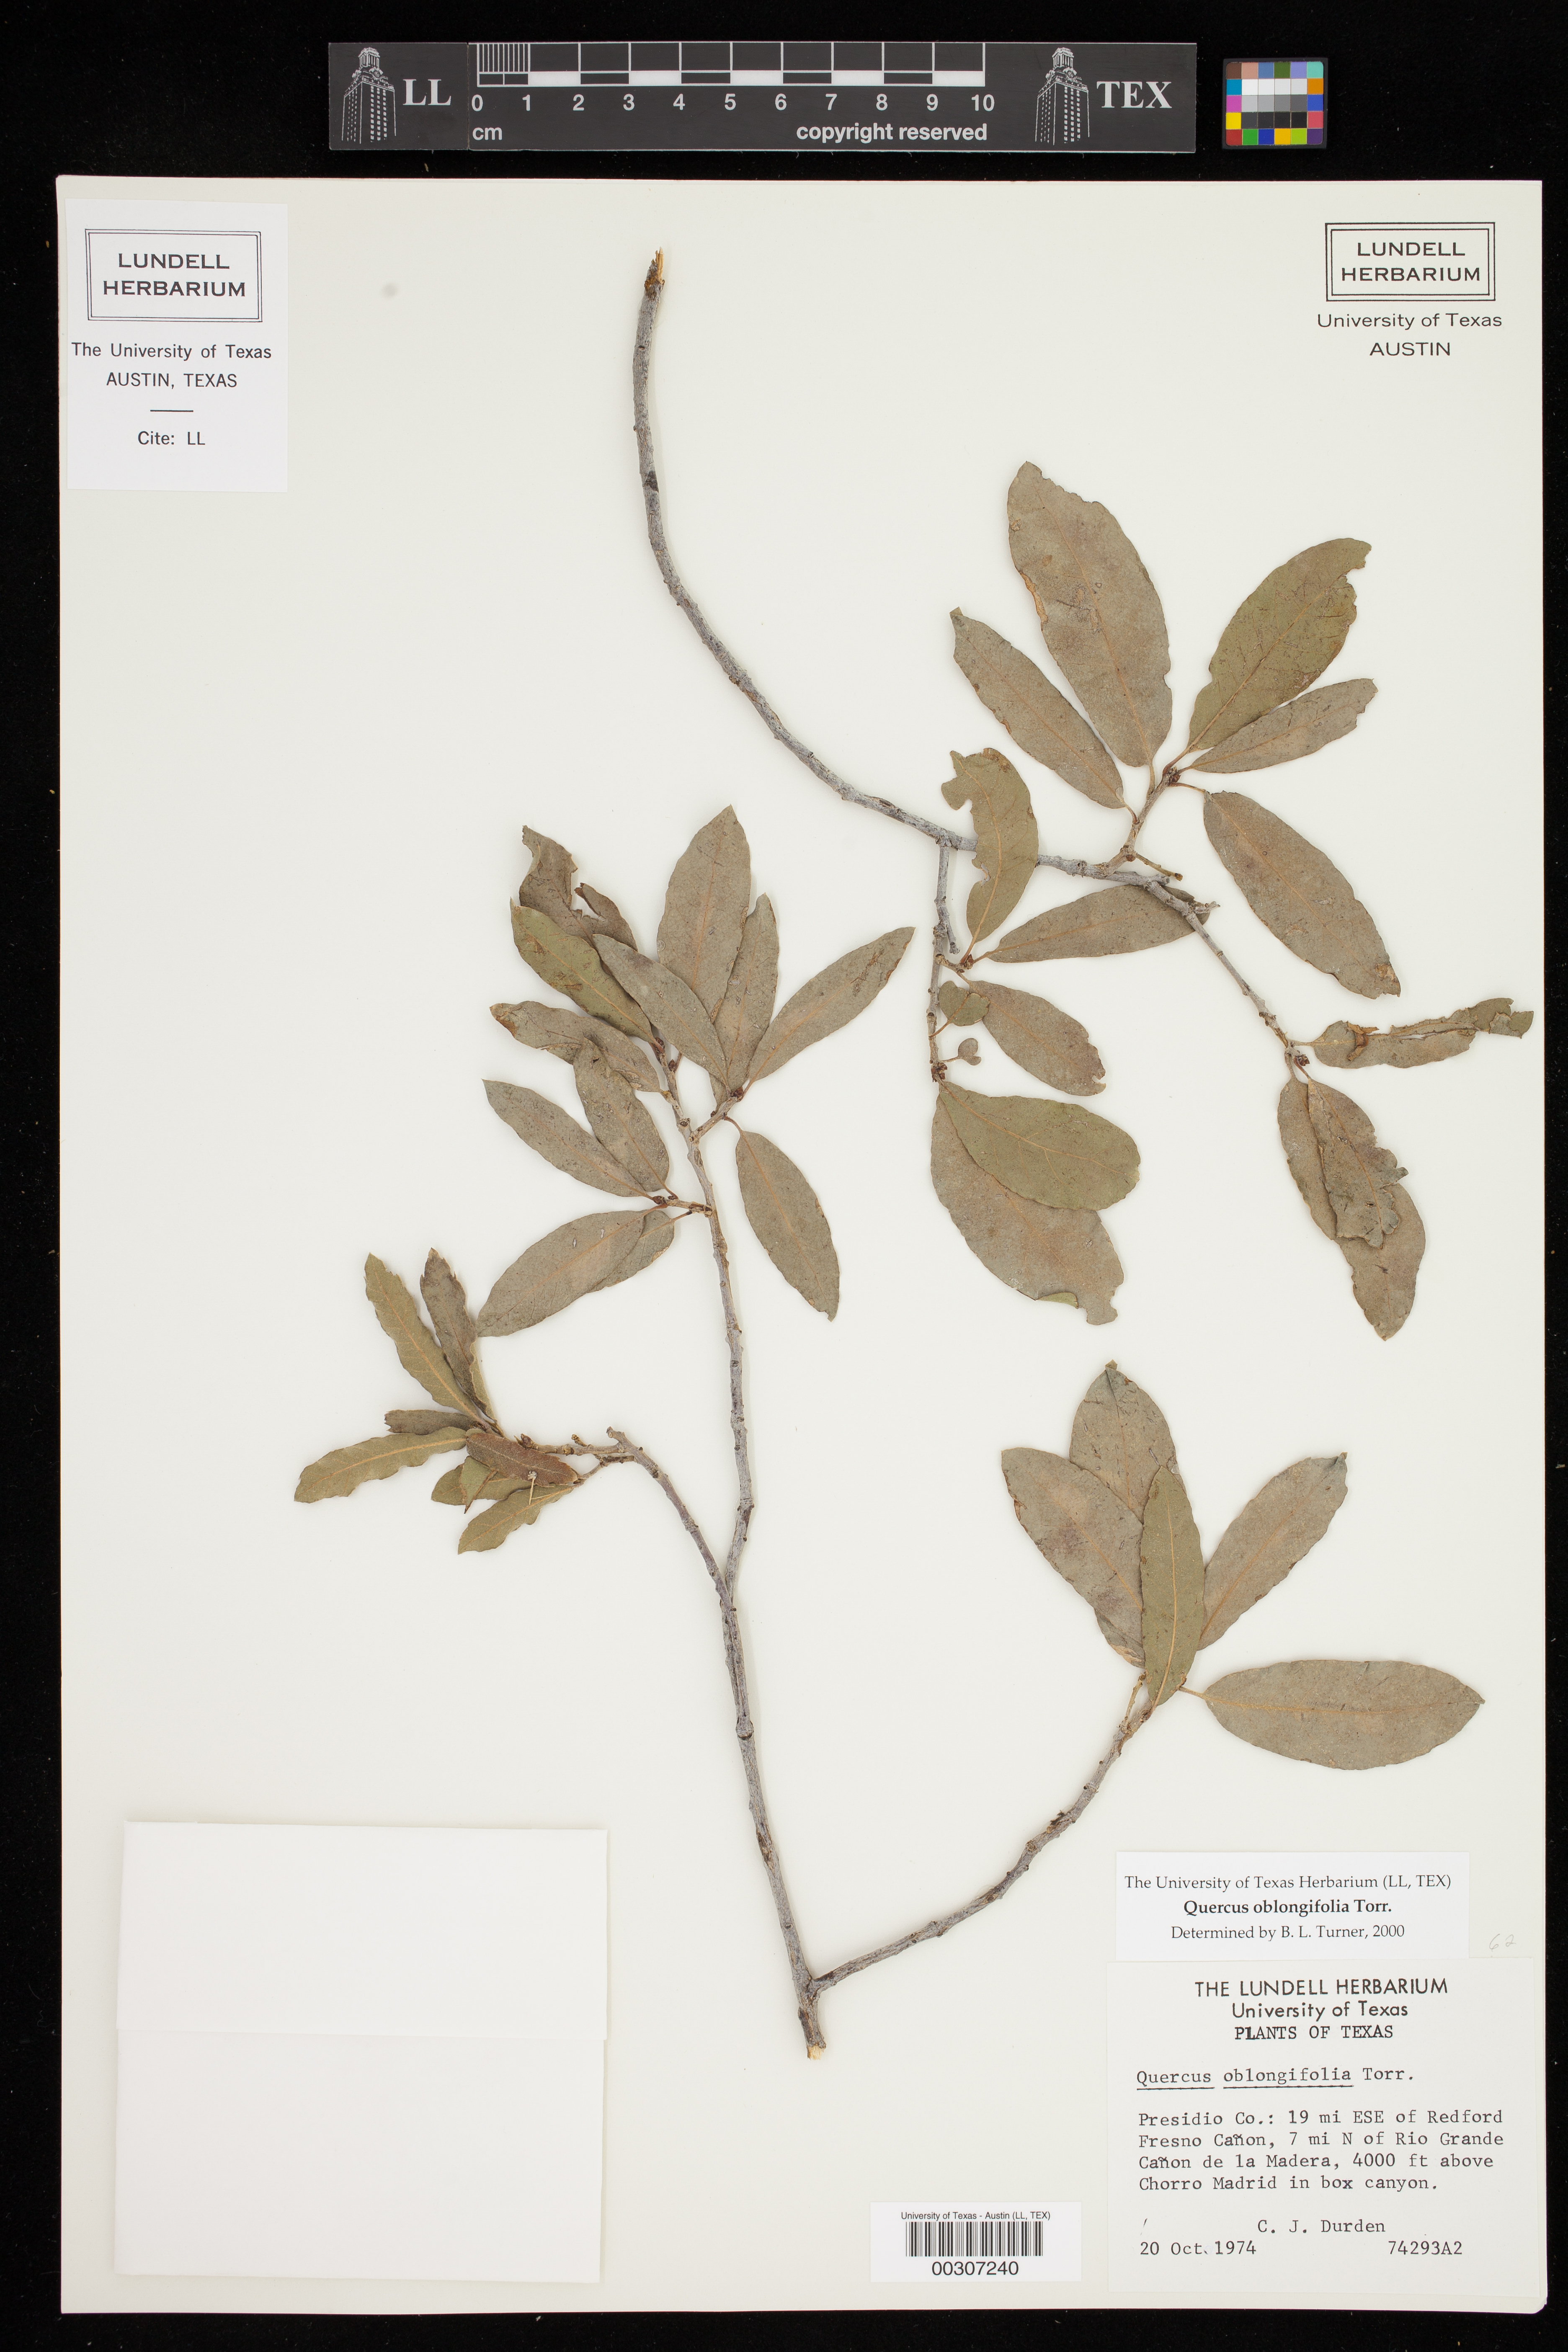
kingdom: Plantae
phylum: Tracheophyta
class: Magnoliopsida
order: Fagales
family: Fagaceae
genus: Quercus
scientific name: Quercus oblongifolia
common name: Mexican blue oak
